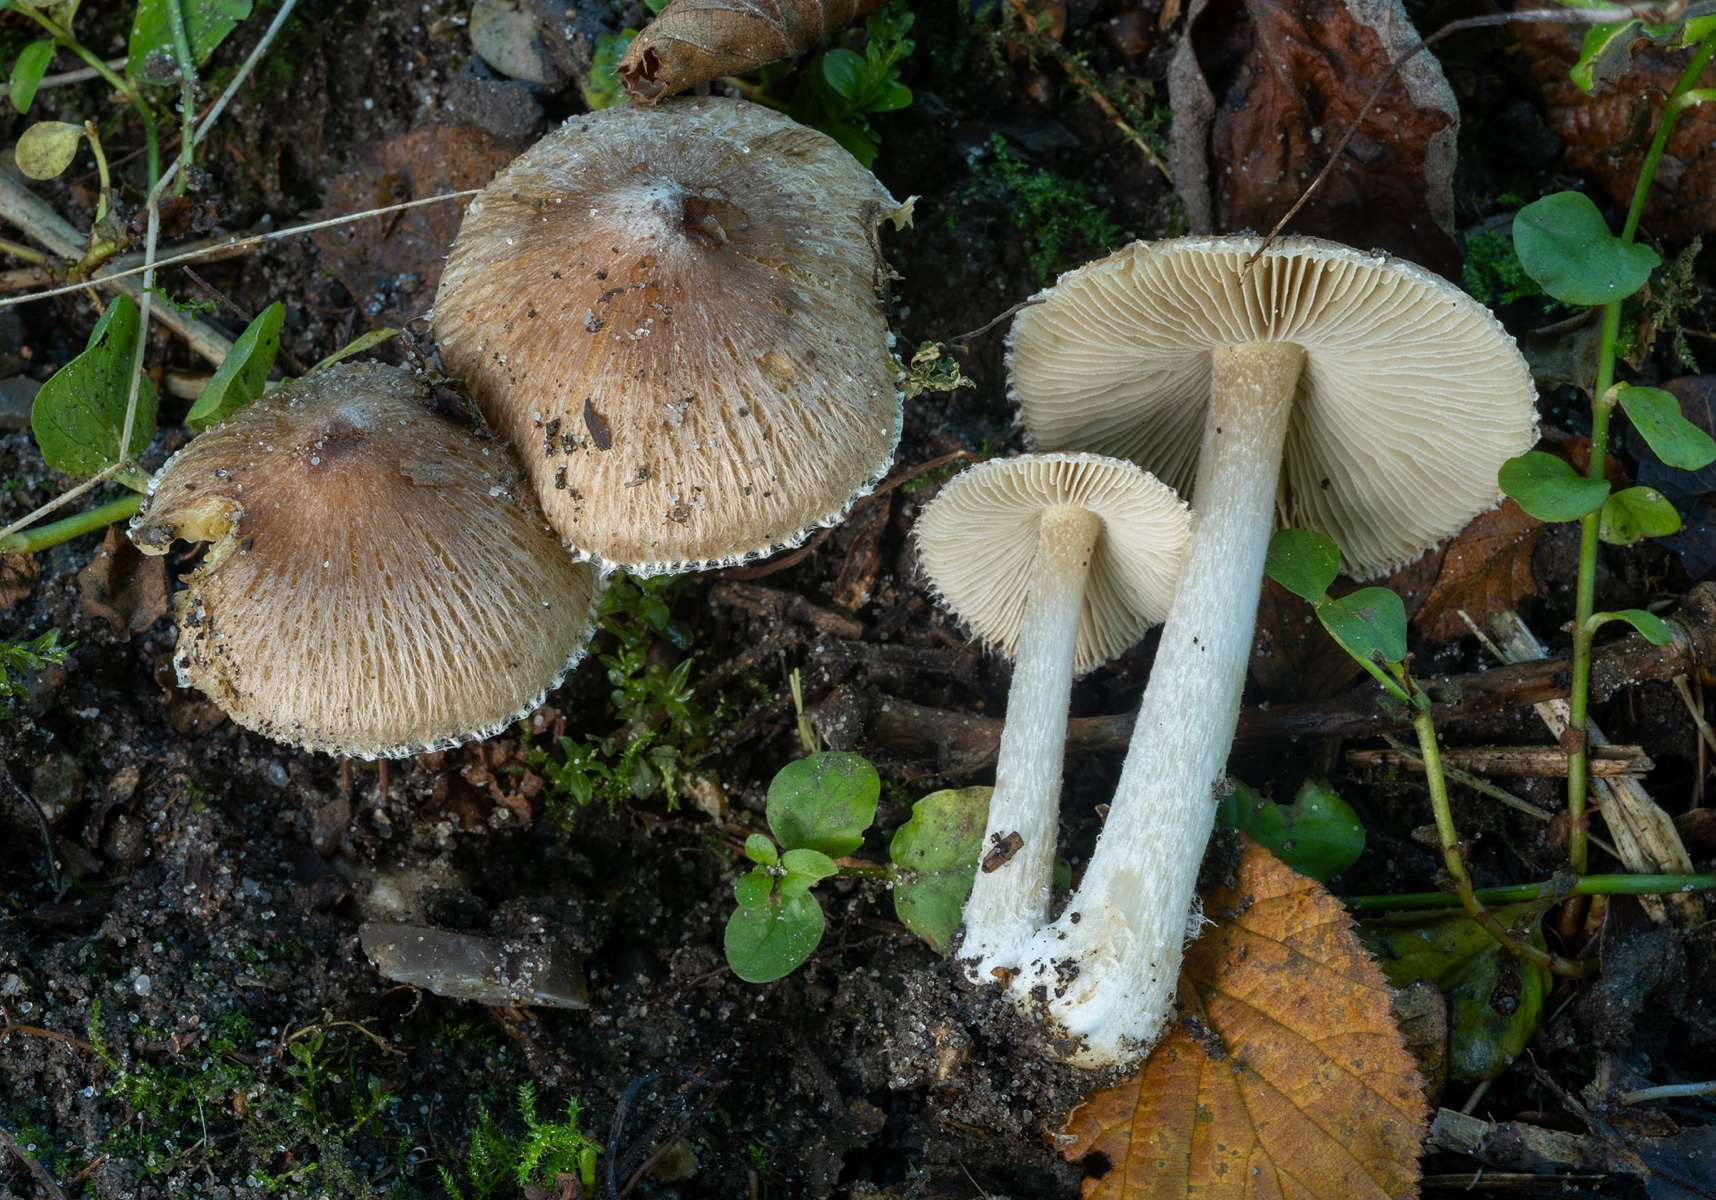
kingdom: Fungi
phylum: Basidiomycota
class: Agaricomycetes
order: Agaricales
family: Inocybaceae
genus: Pseudosperma
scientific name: Pseudosperma rimosum
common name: gulbladet trævlhat
